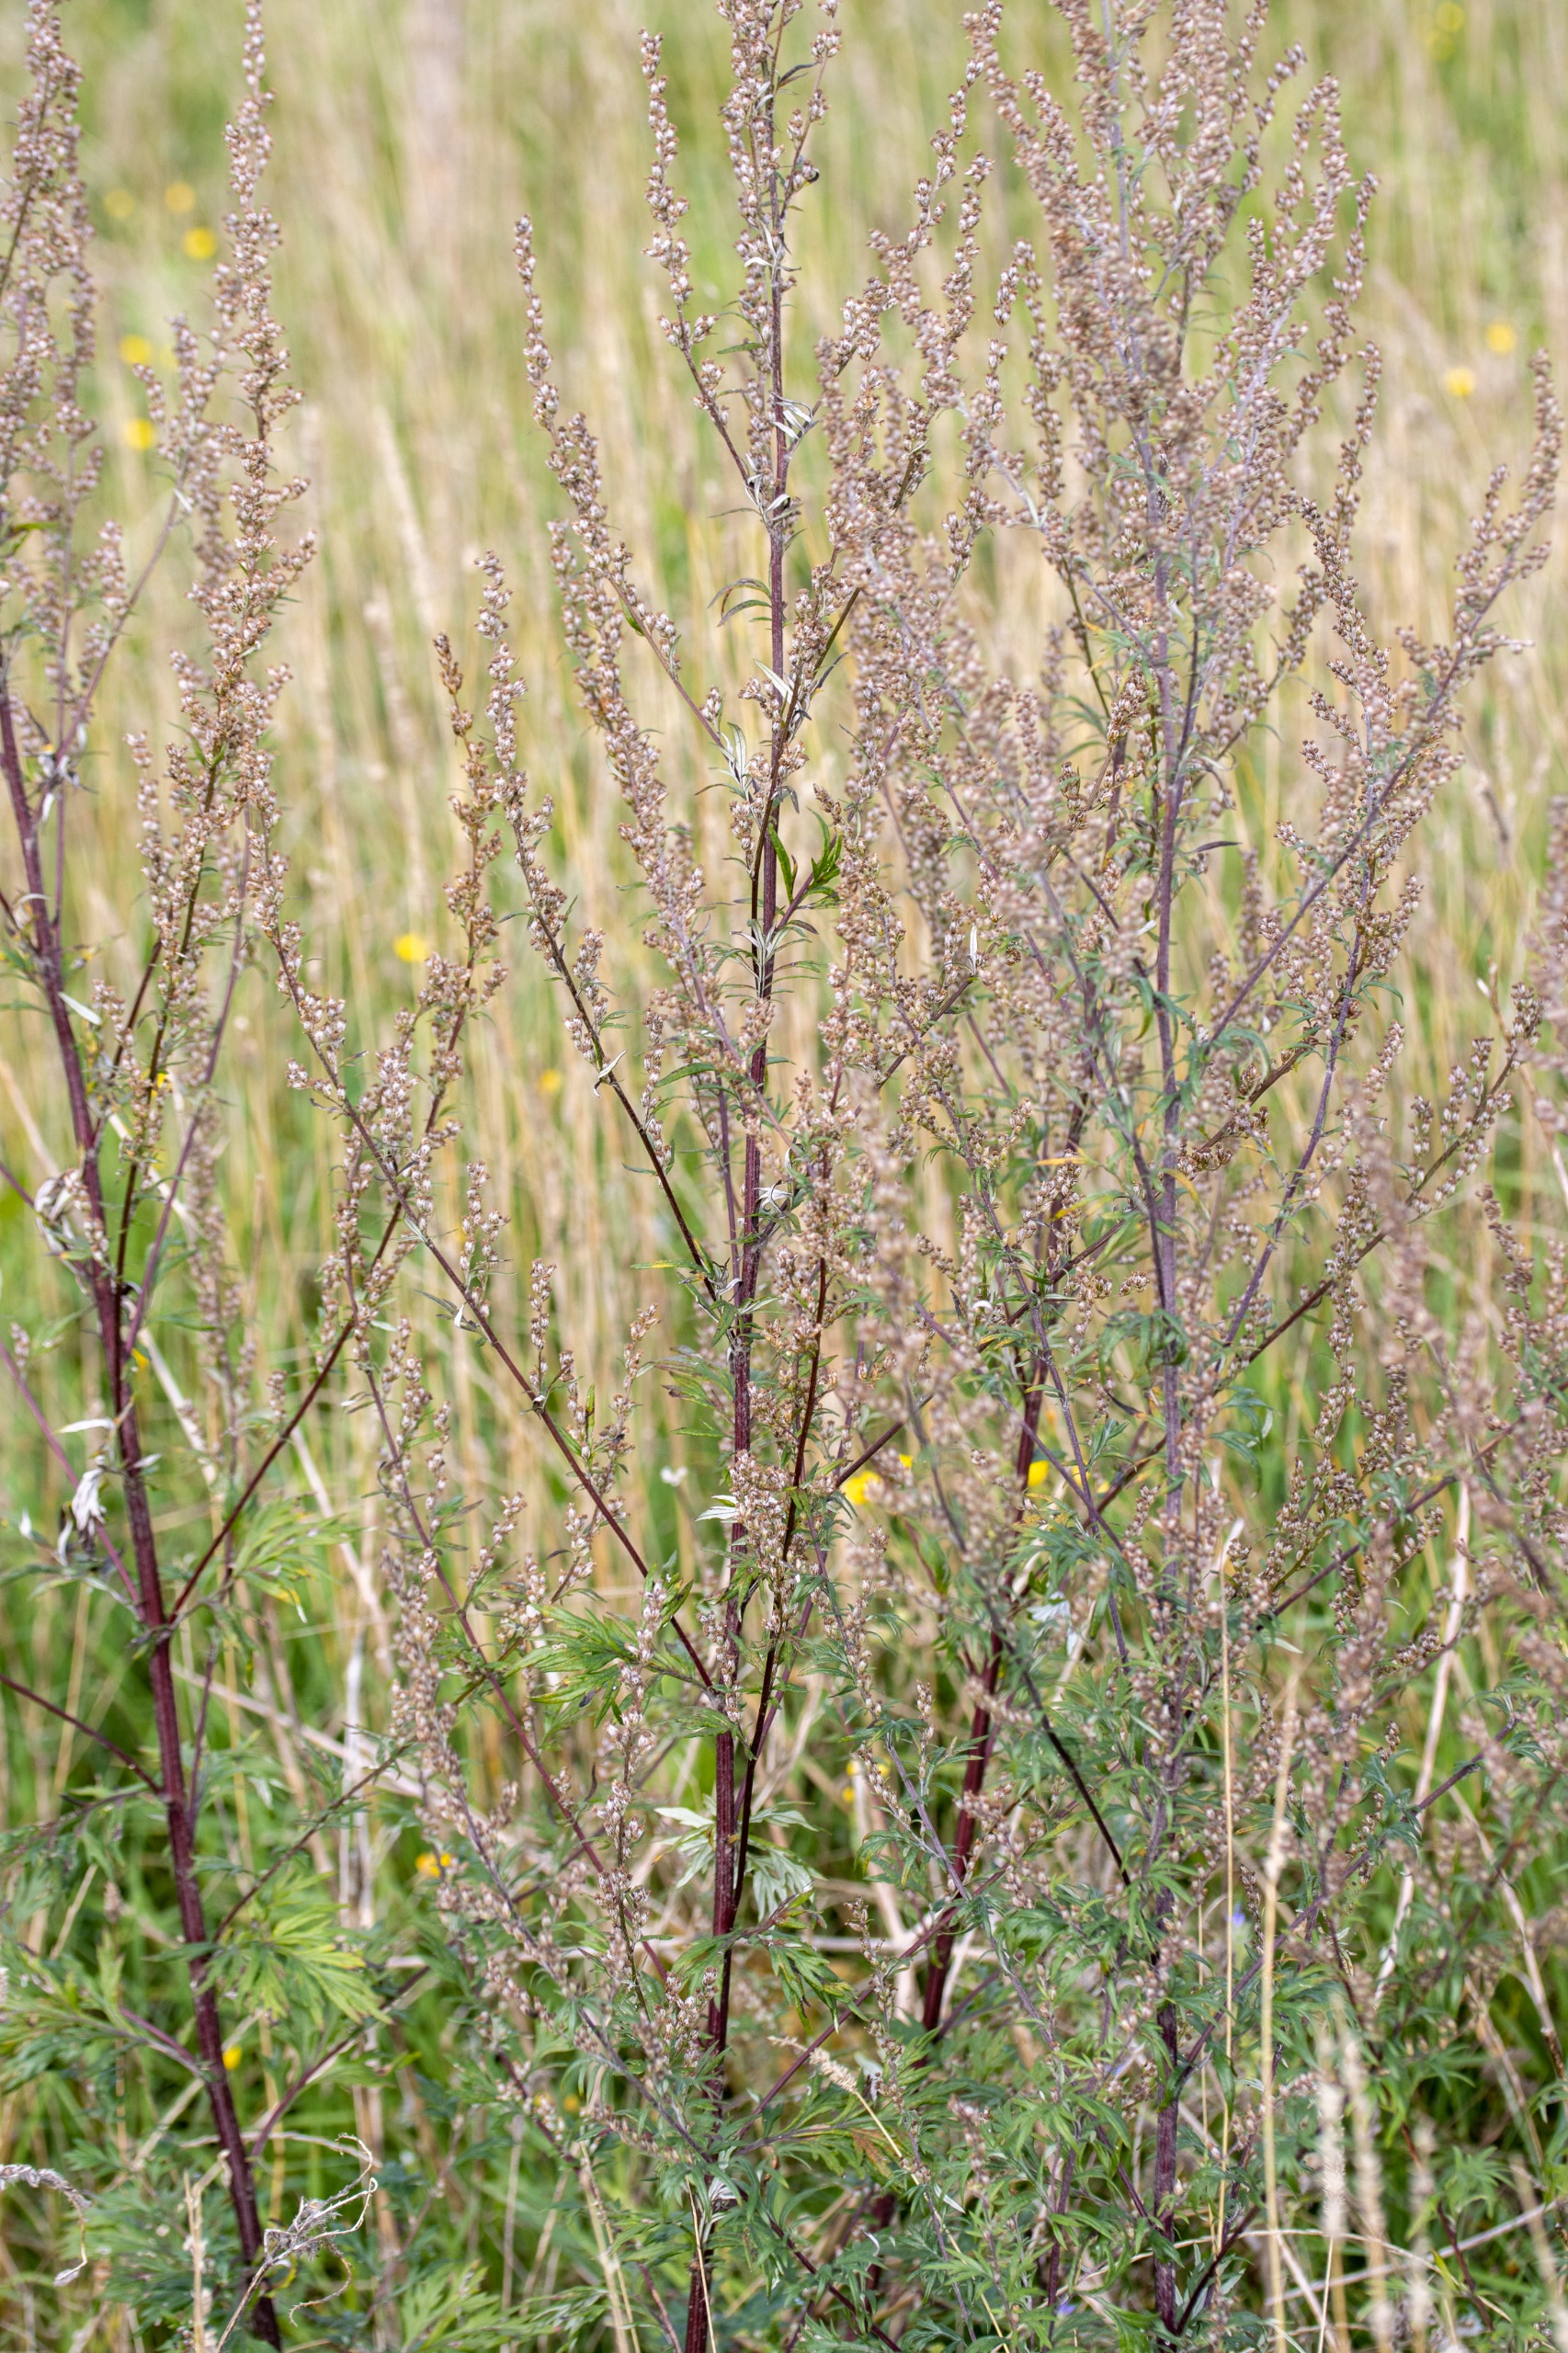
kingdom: Plantae
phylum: Tracheophyta
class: Magnoliopsida
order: Asterales
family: Asteraceae
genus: Artemisia
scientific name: Artemisia vulgaris
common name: Grå-bynke
